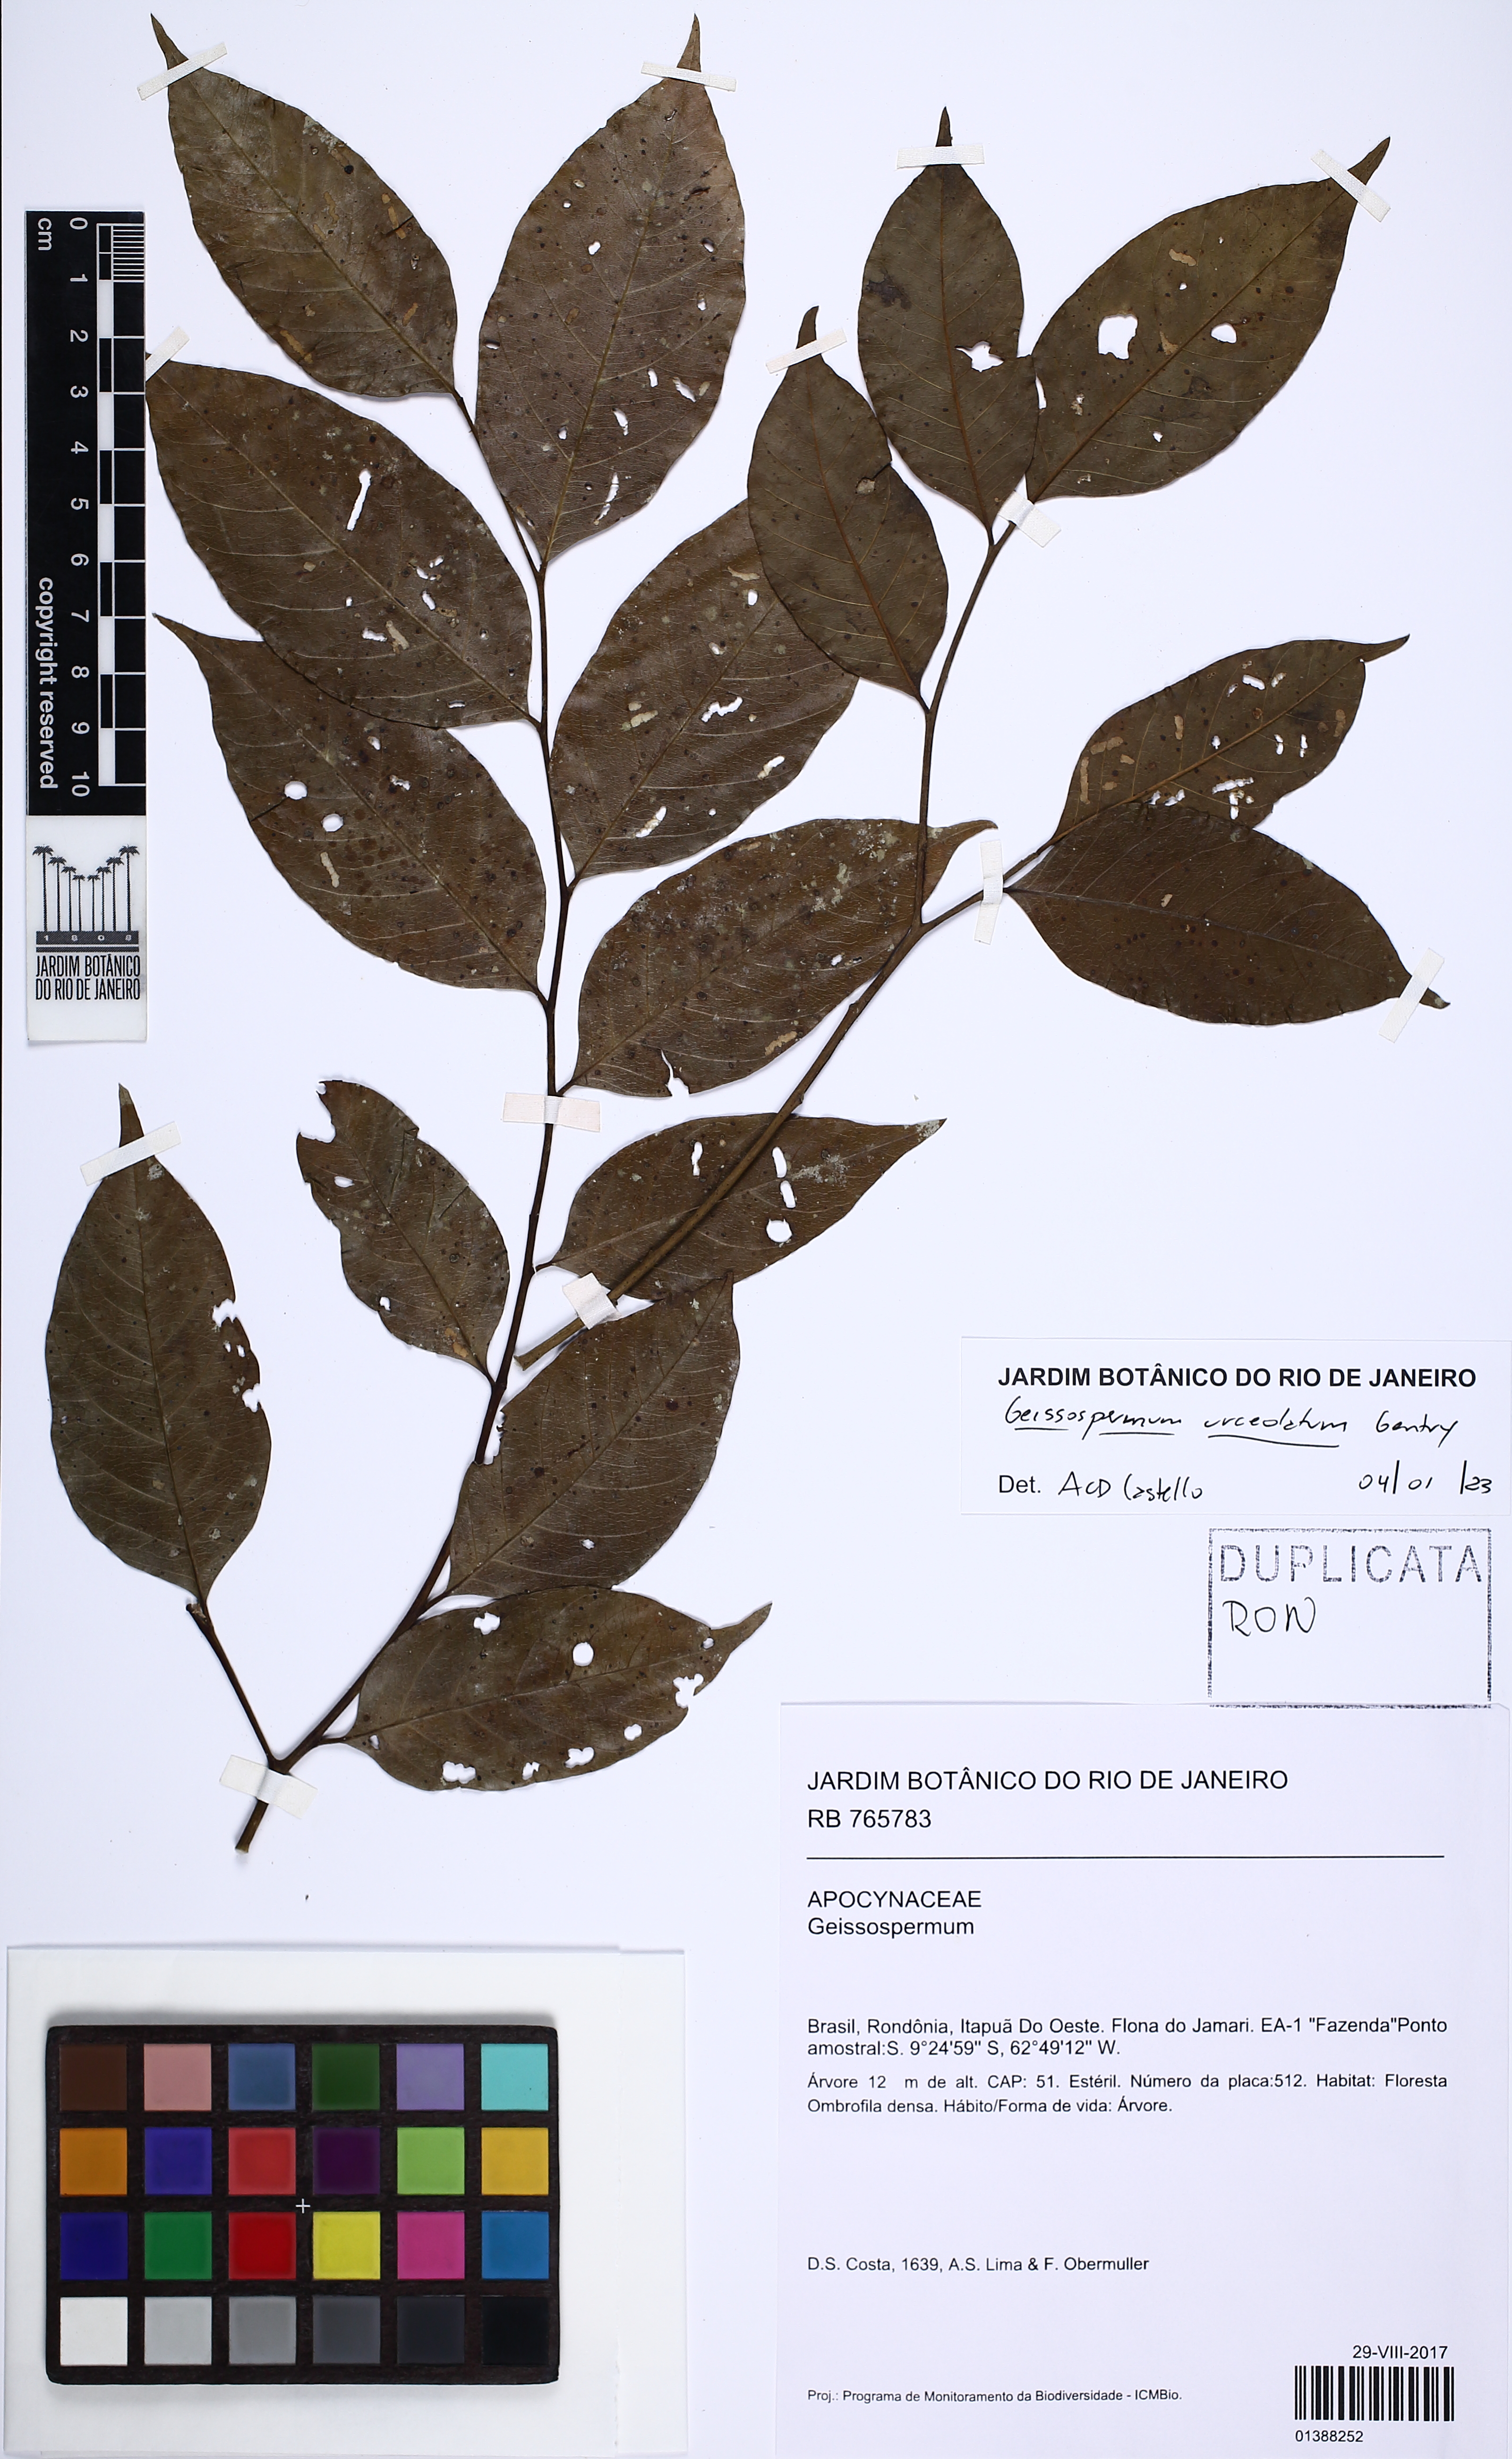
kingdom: Plantae
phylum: Tracheophyta
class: Magnoliopsida
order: Gentianales
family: Apocynaceae
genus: Geissospermum
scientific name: Geissospermum urceolatum
